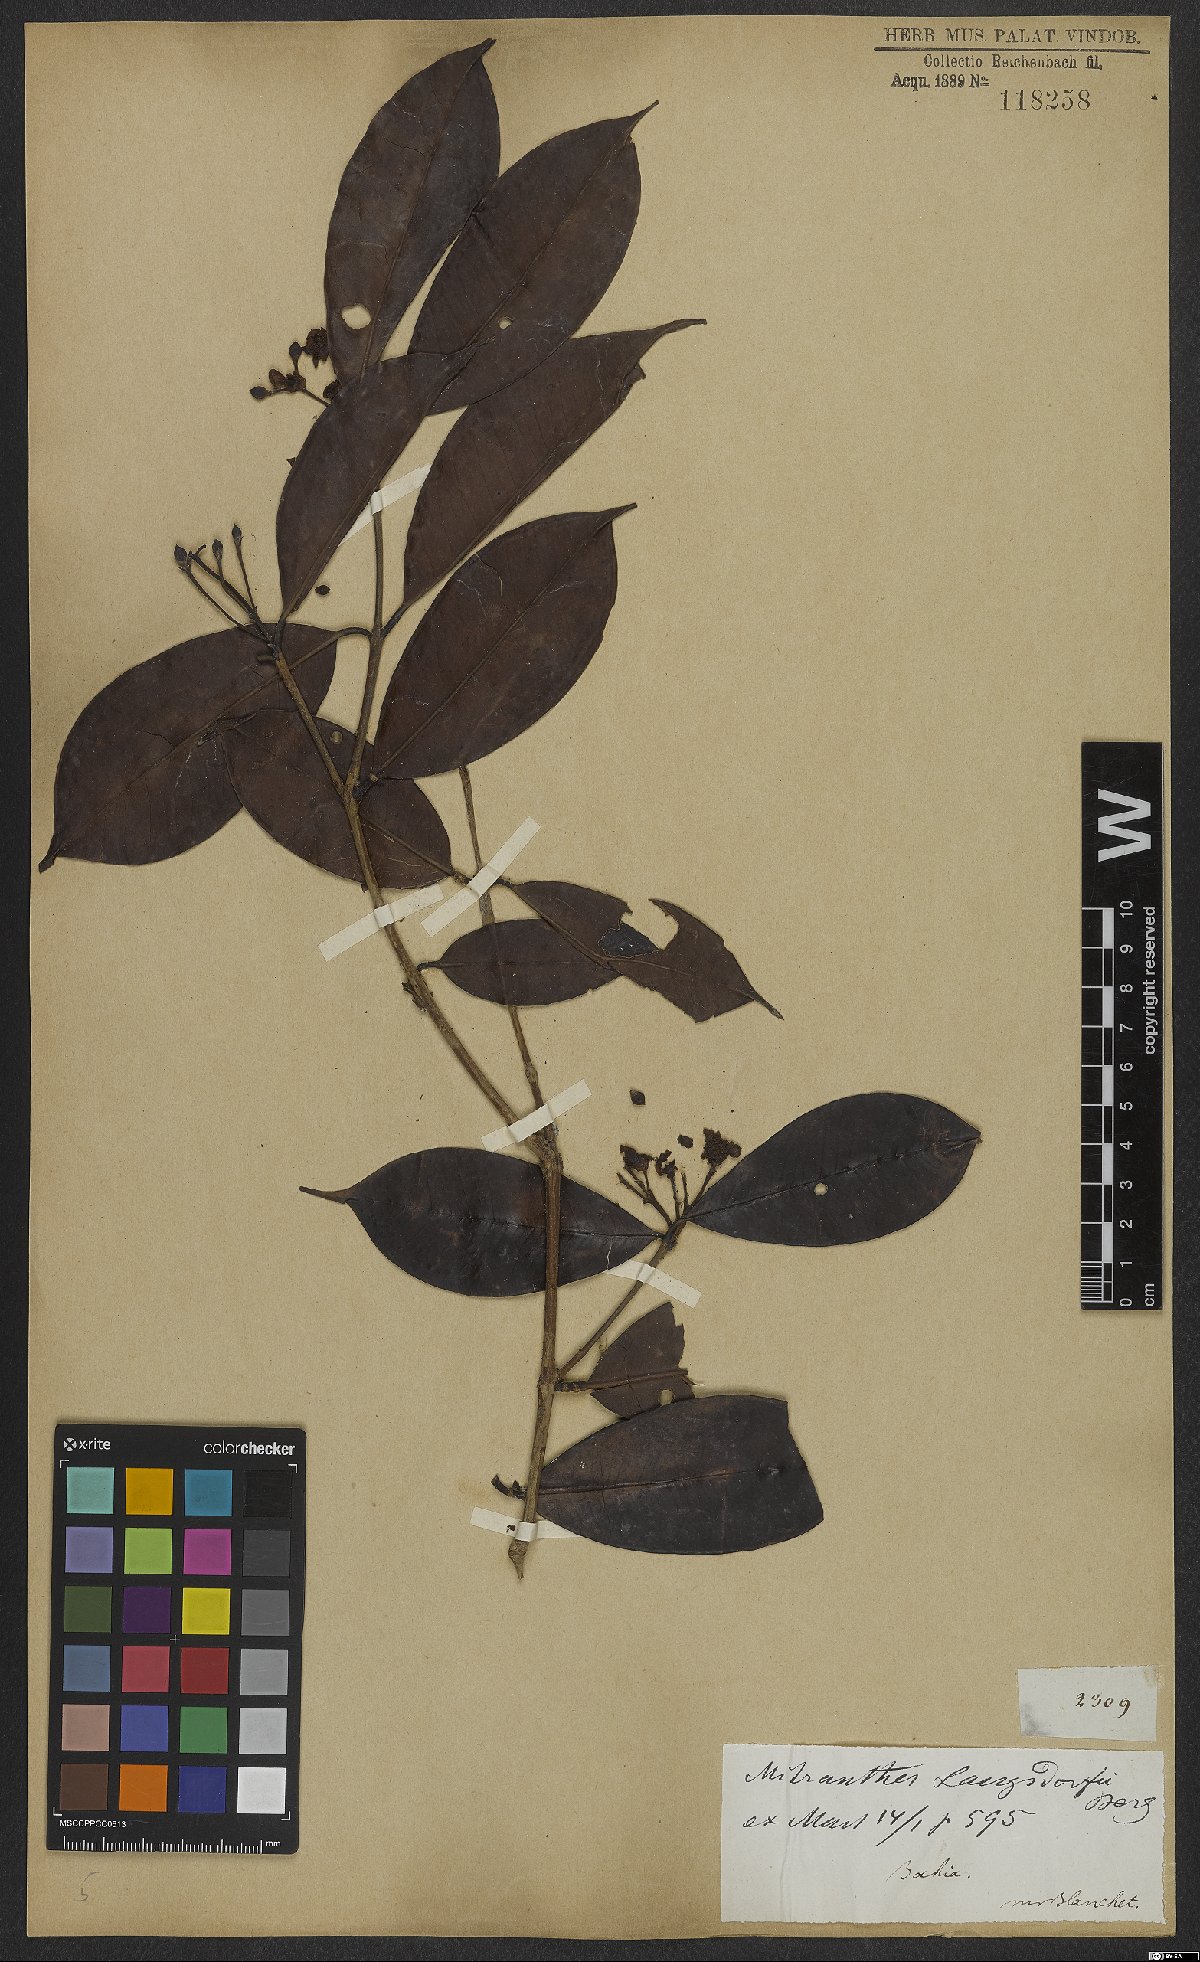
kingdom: Plantae
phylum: Tracheophyta
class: Magnoliopsida
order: Myrtales
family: Myrtaceae
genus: Neomitranthes
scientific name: Neomitranthes langsdorffii
